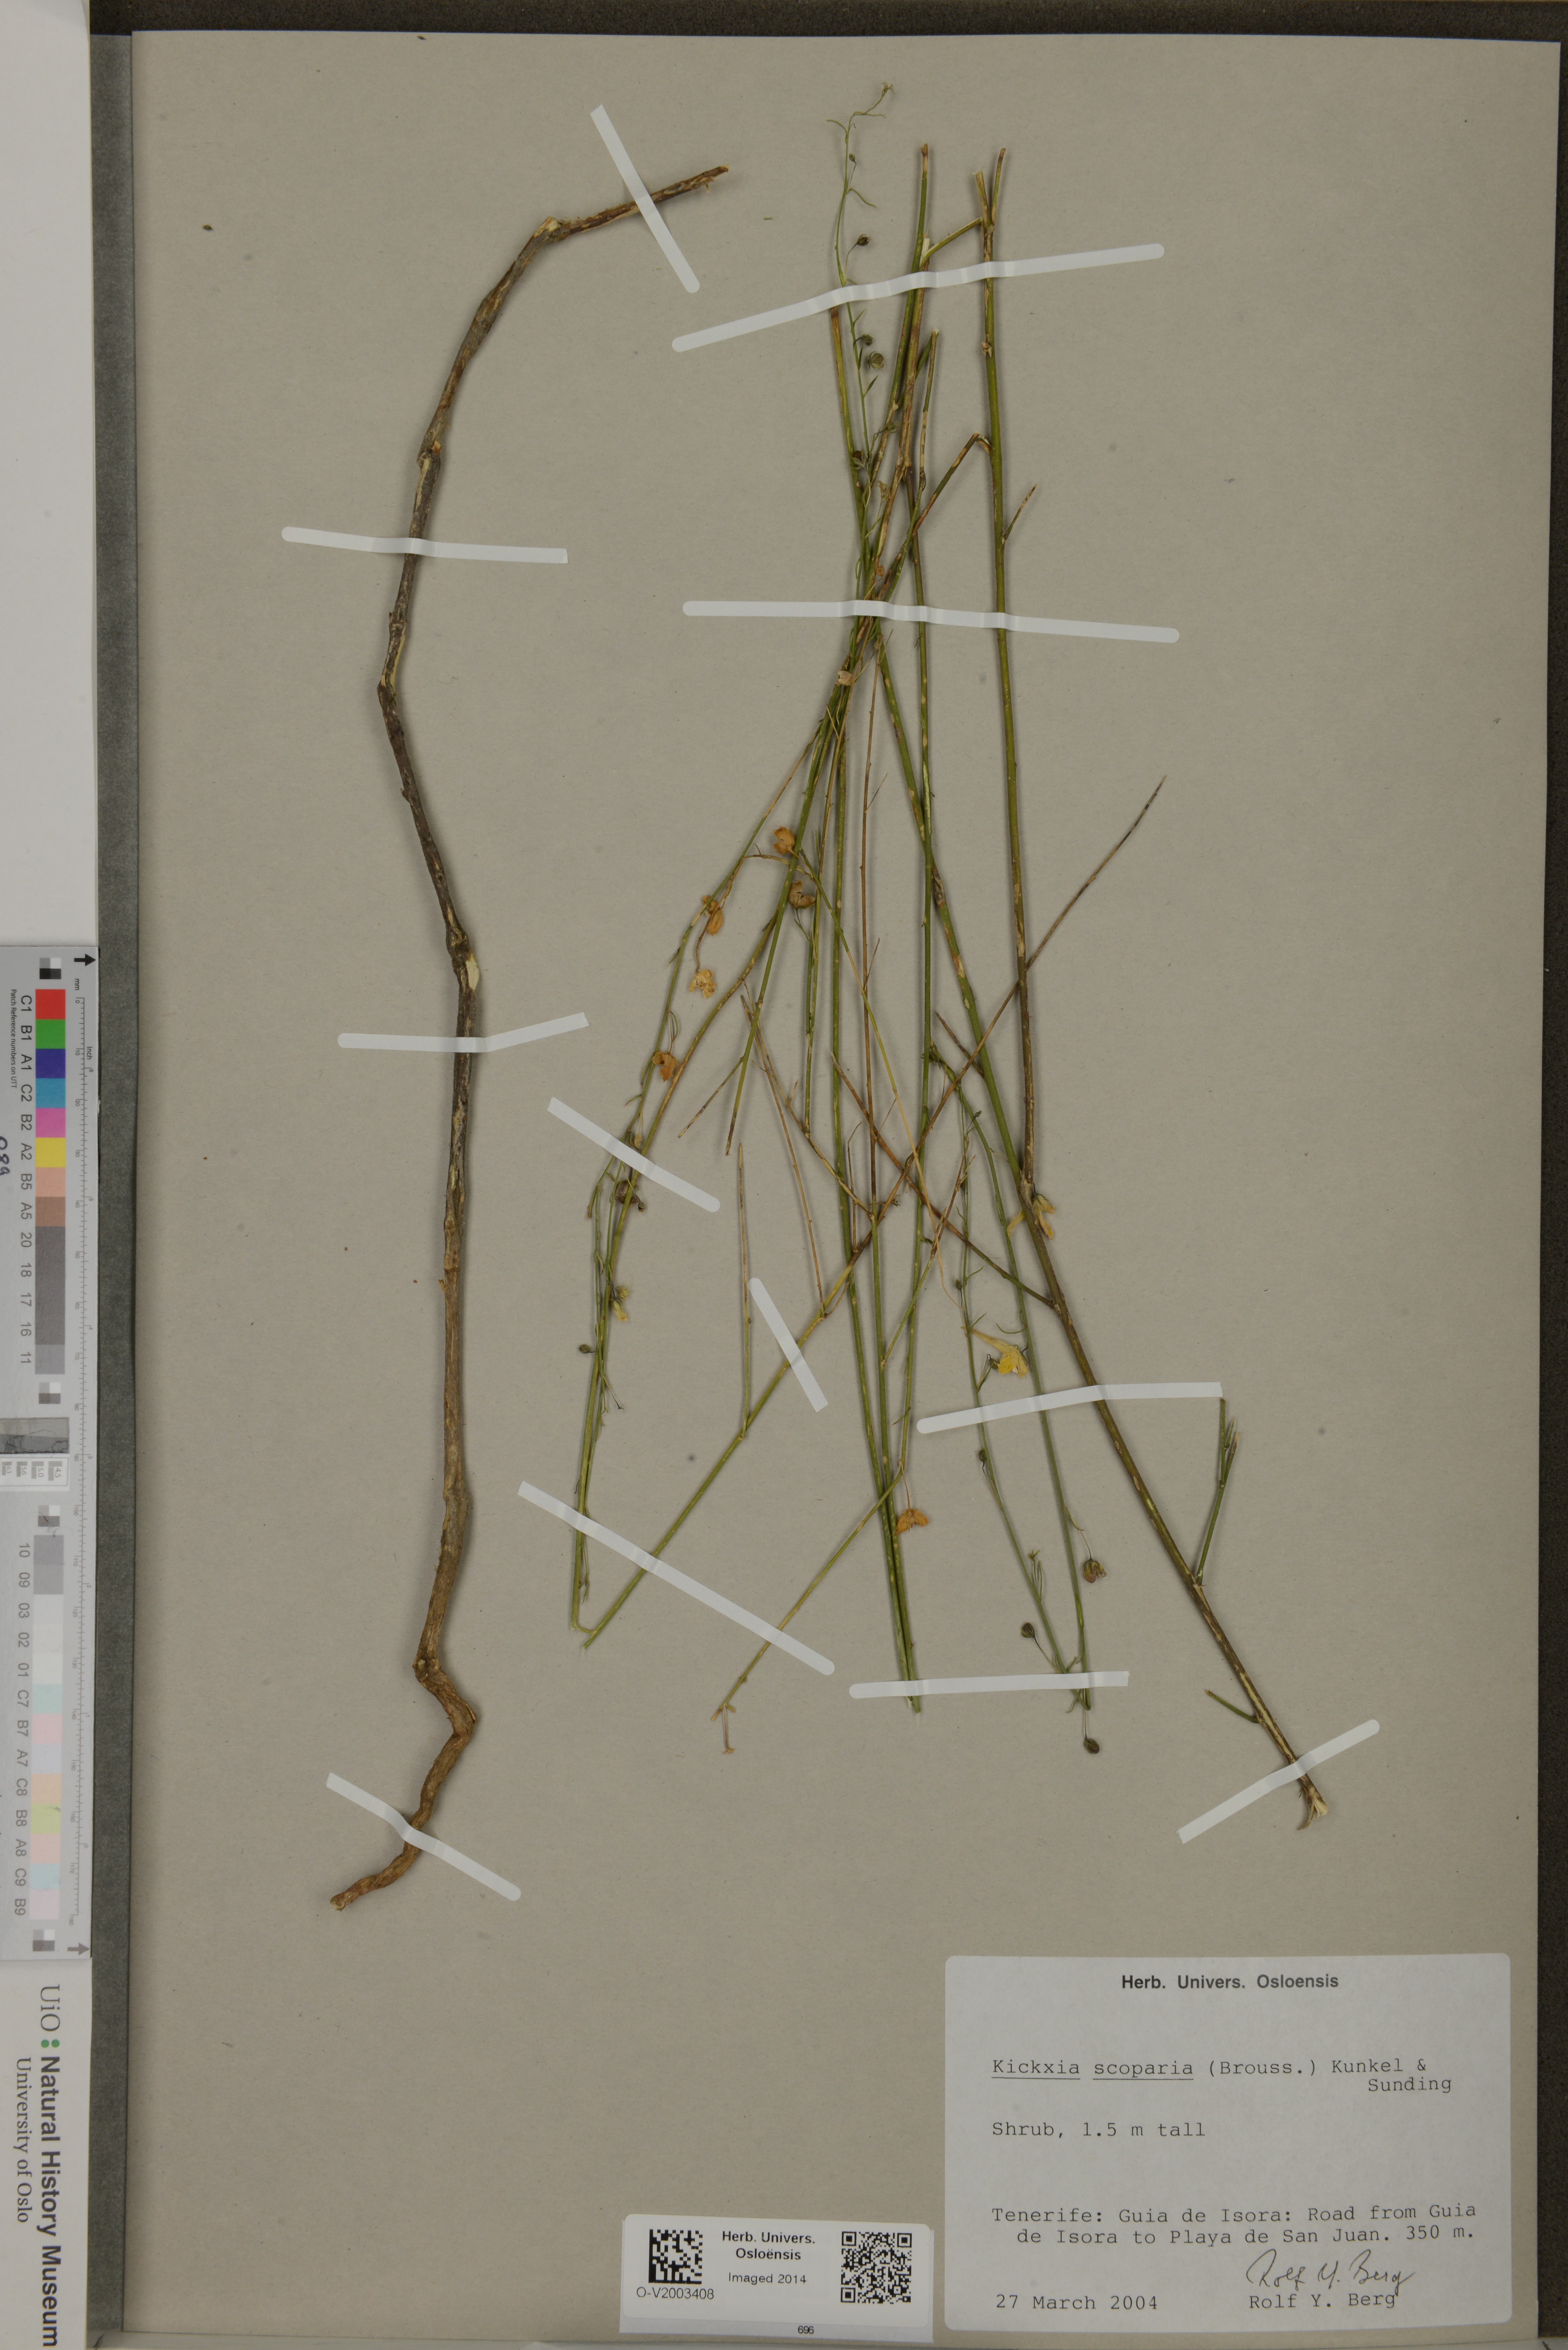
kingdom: Plantae
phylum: Tracheophyta
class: Magnoliopsida
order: Lamiales
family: Plantaginaceae
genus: Nanorrhinum
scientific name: Nanorrhinum scoparium
